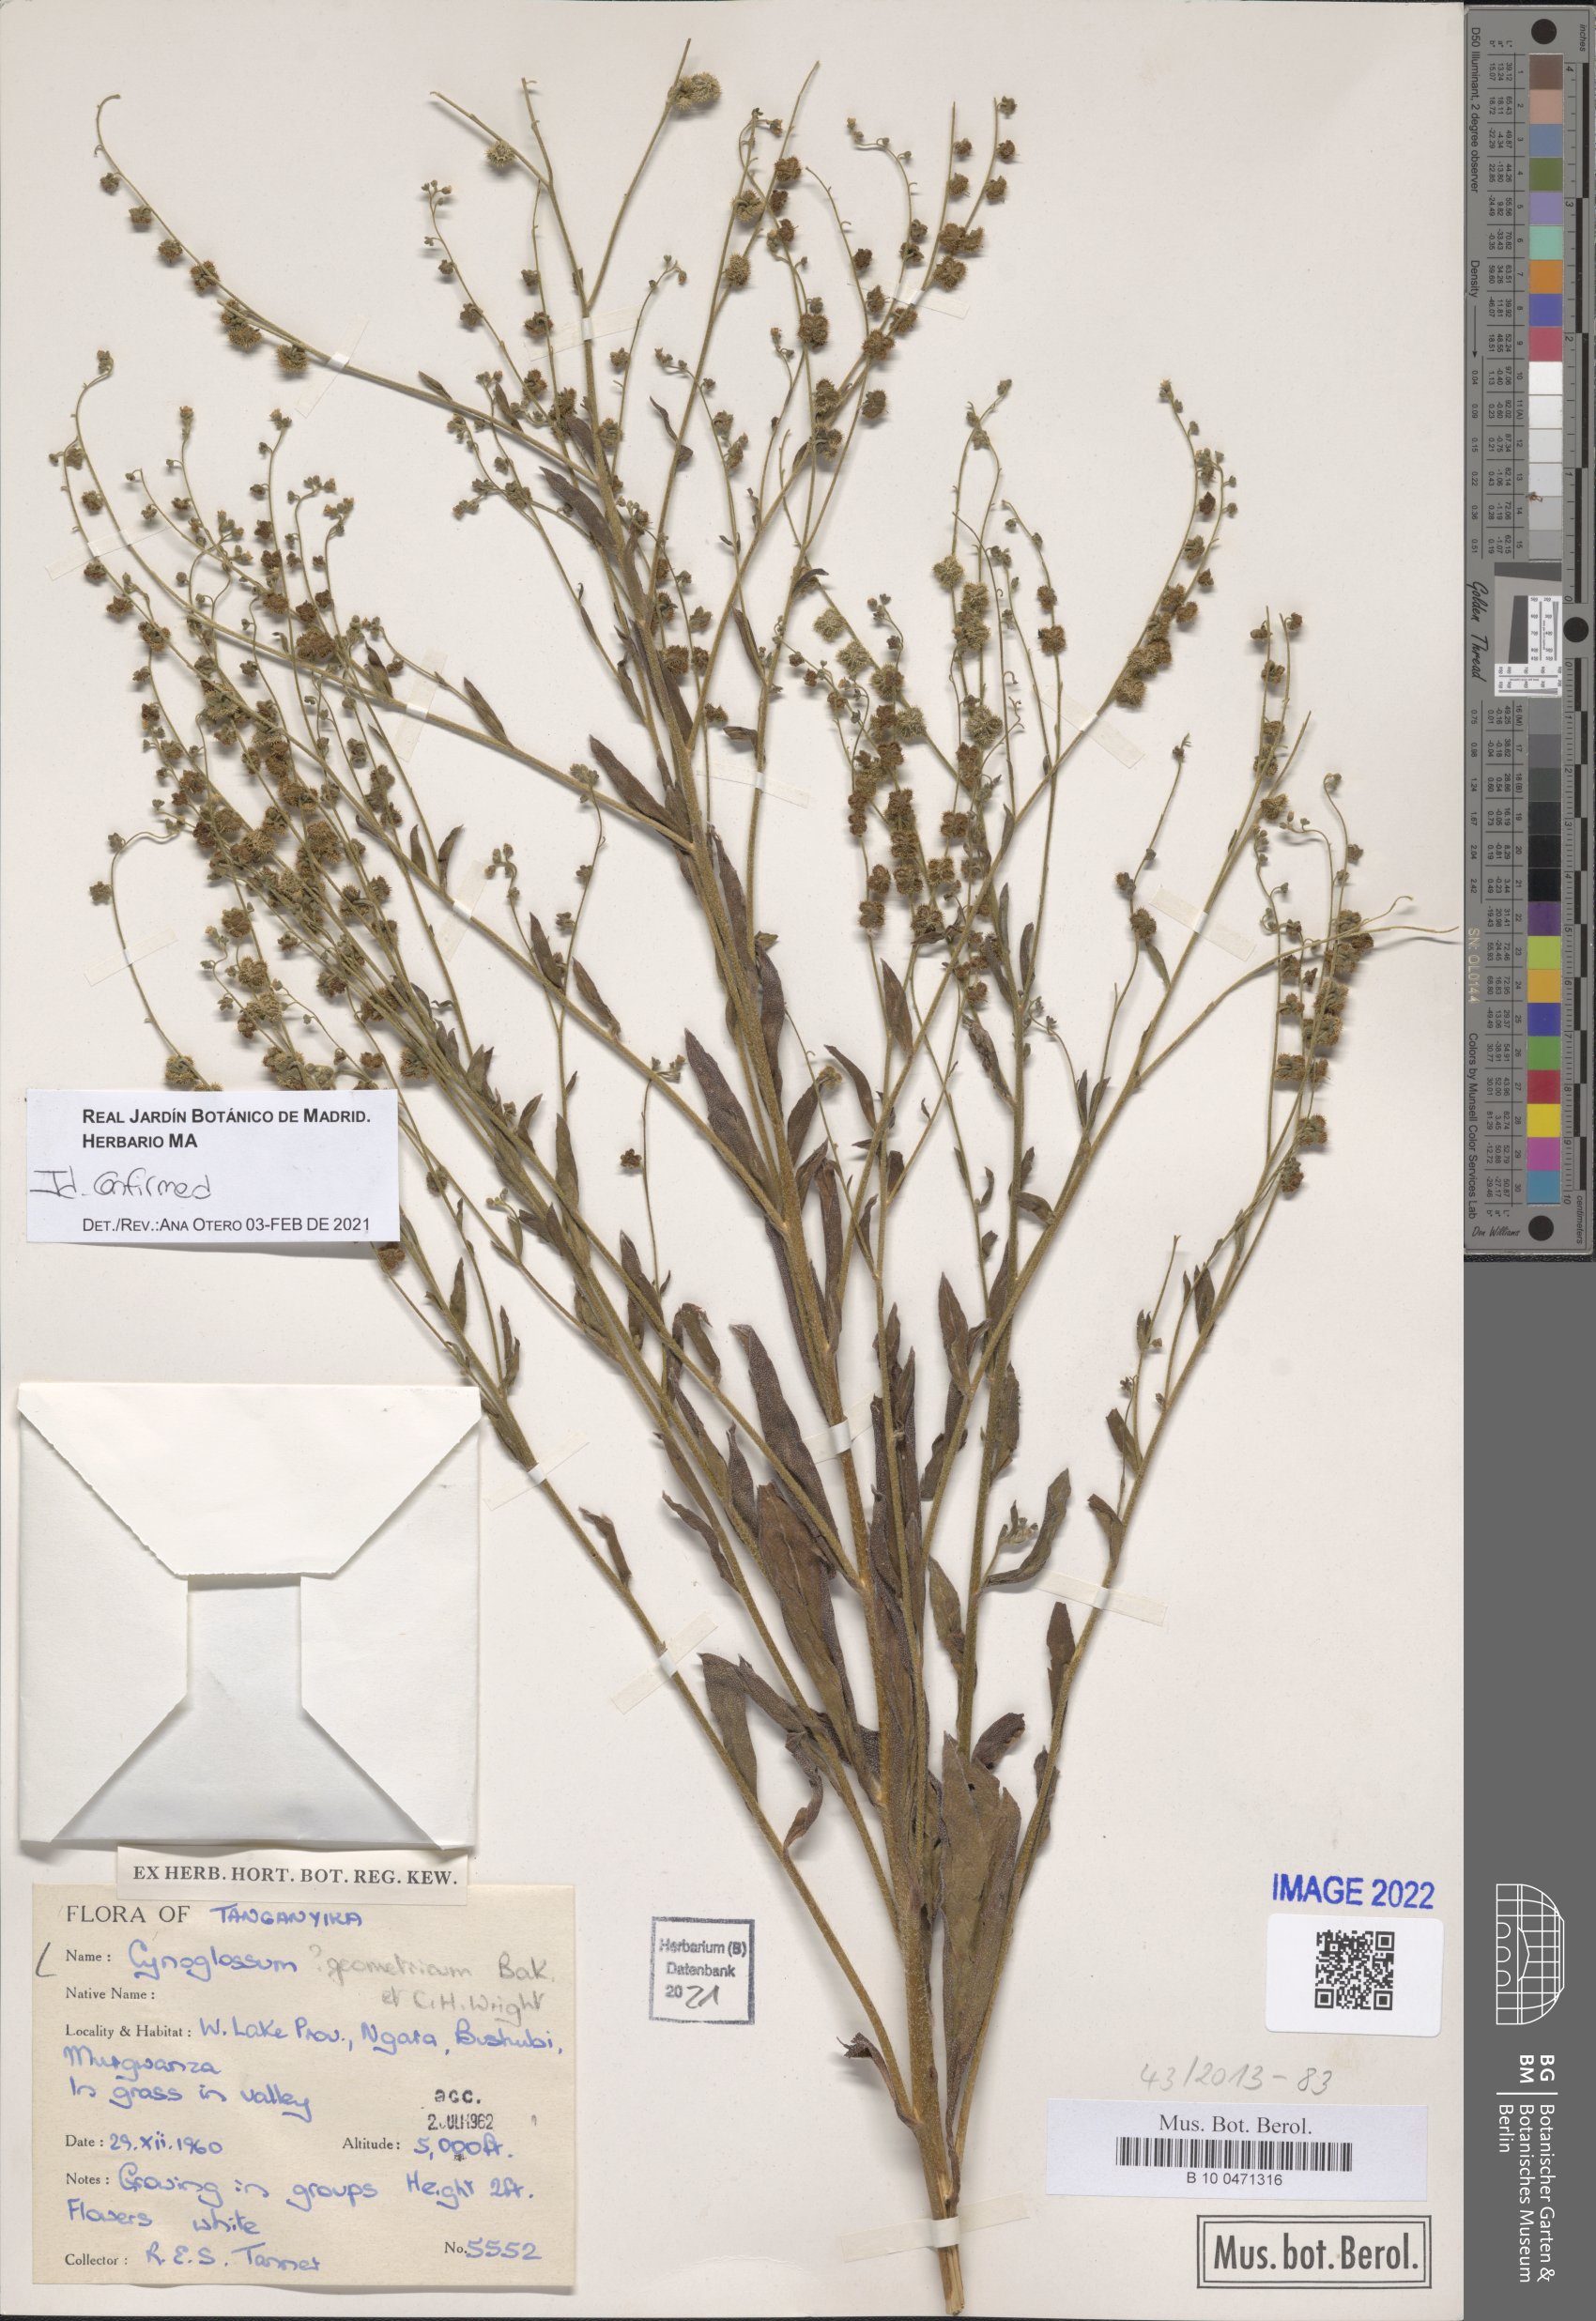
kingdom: Plantae
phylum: Tracheophyta
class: Magnoliopsida
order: Boraginales
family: Boraginaceae
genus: Paracynoglossum
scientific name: Paracynoglossum geometricum
